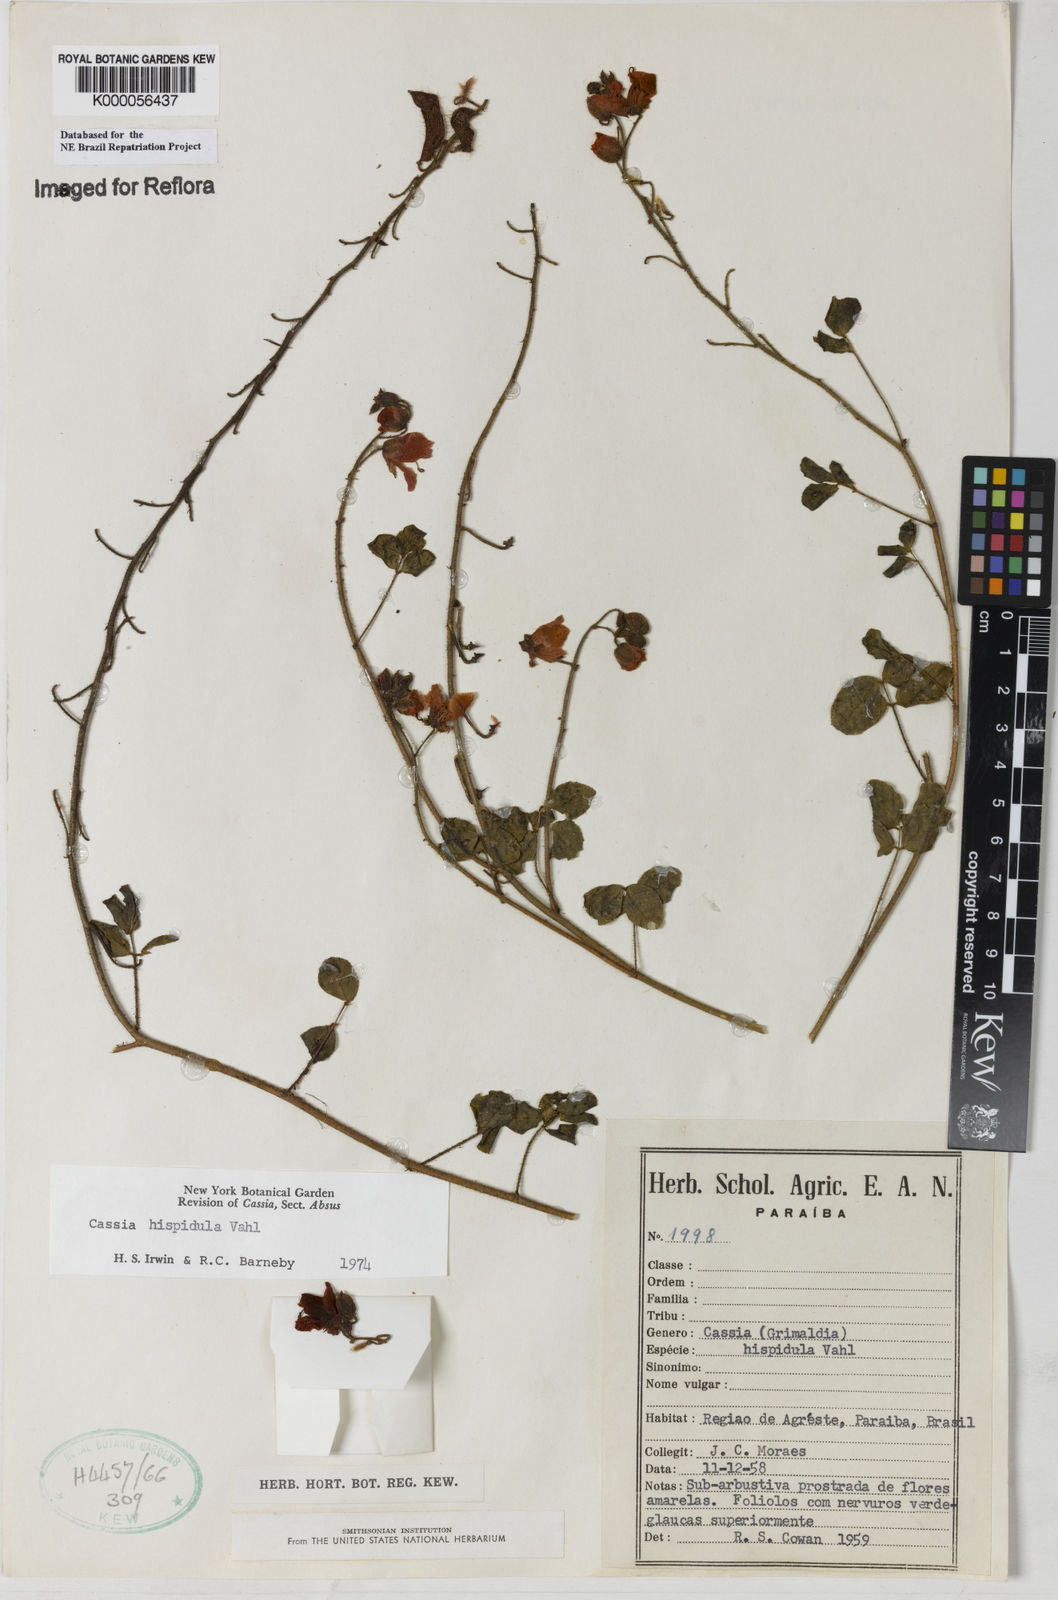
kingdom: Plantae
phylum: Tracheophyta
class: Magnoliopsida
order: Fabales
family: Fabaceae
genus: Chamaecrista
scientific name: Chamaecrista hispidula
